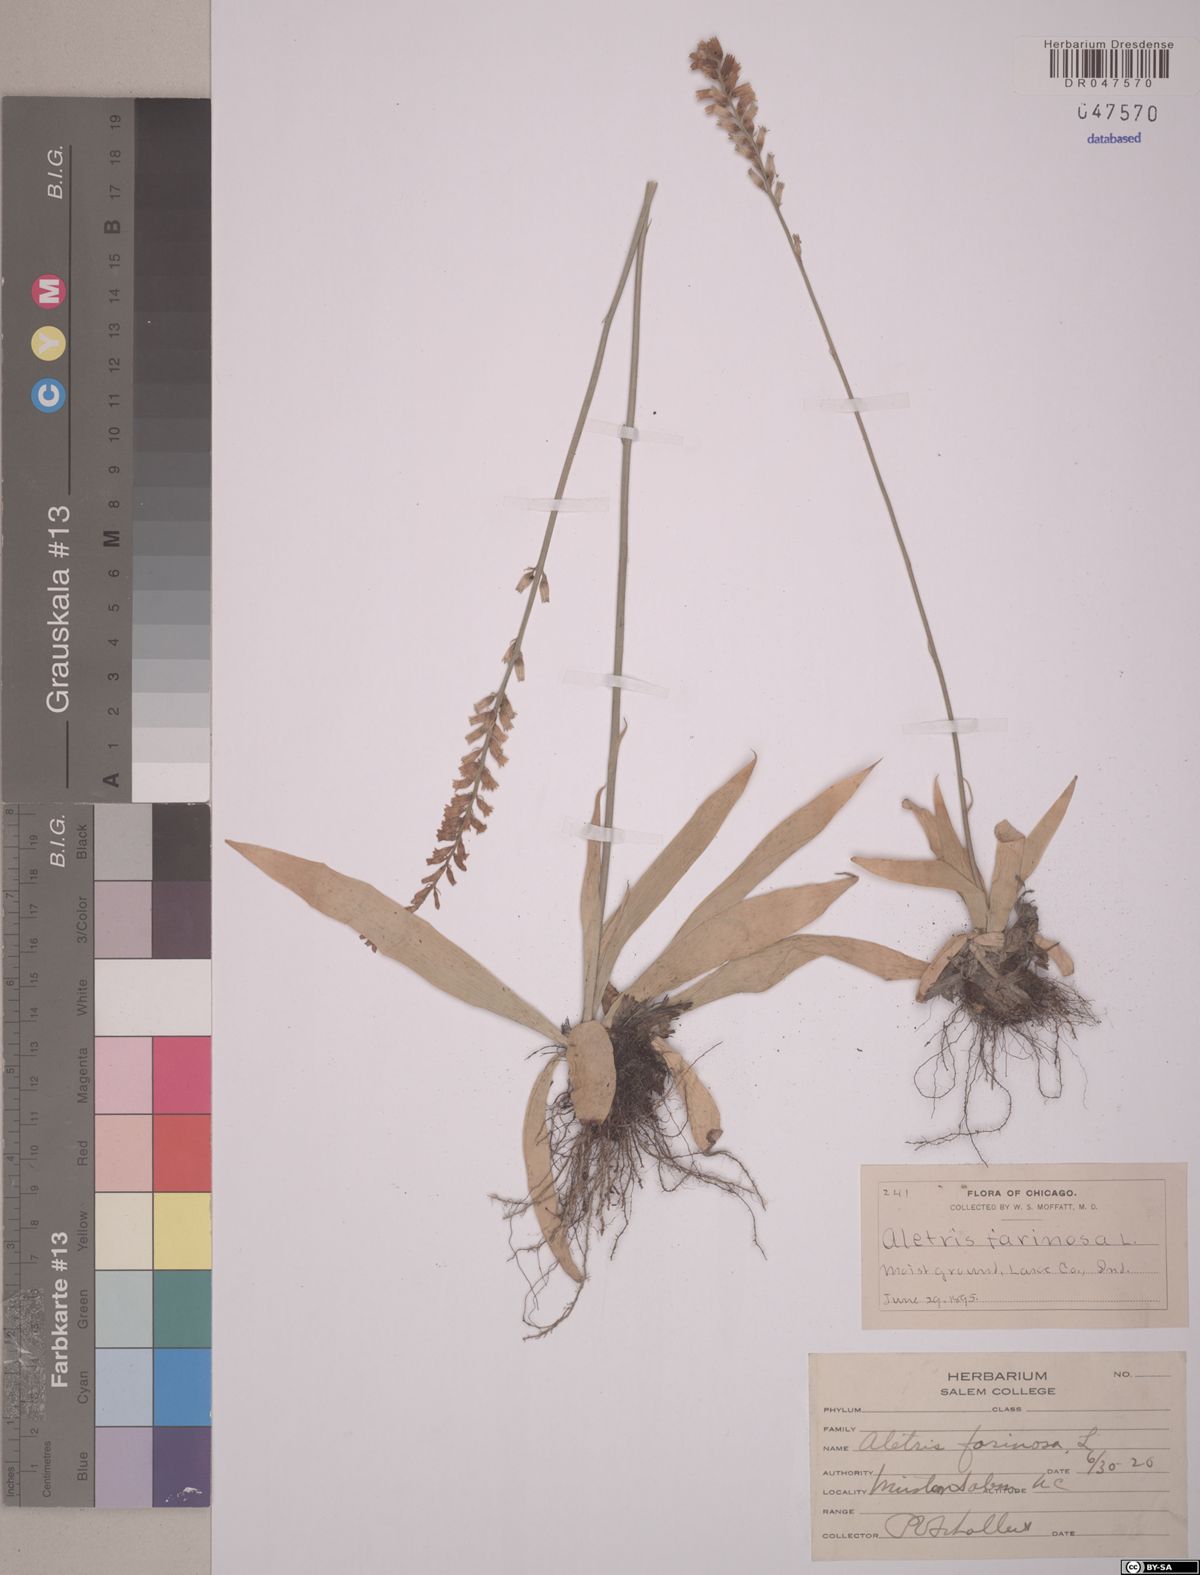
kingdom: Plantae
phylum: Tracheophyta
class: Liliopsida
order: Dioscoreales
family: Nartheciaceae
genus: Aletris
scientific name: Aletris farinosa
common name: Colicroot
